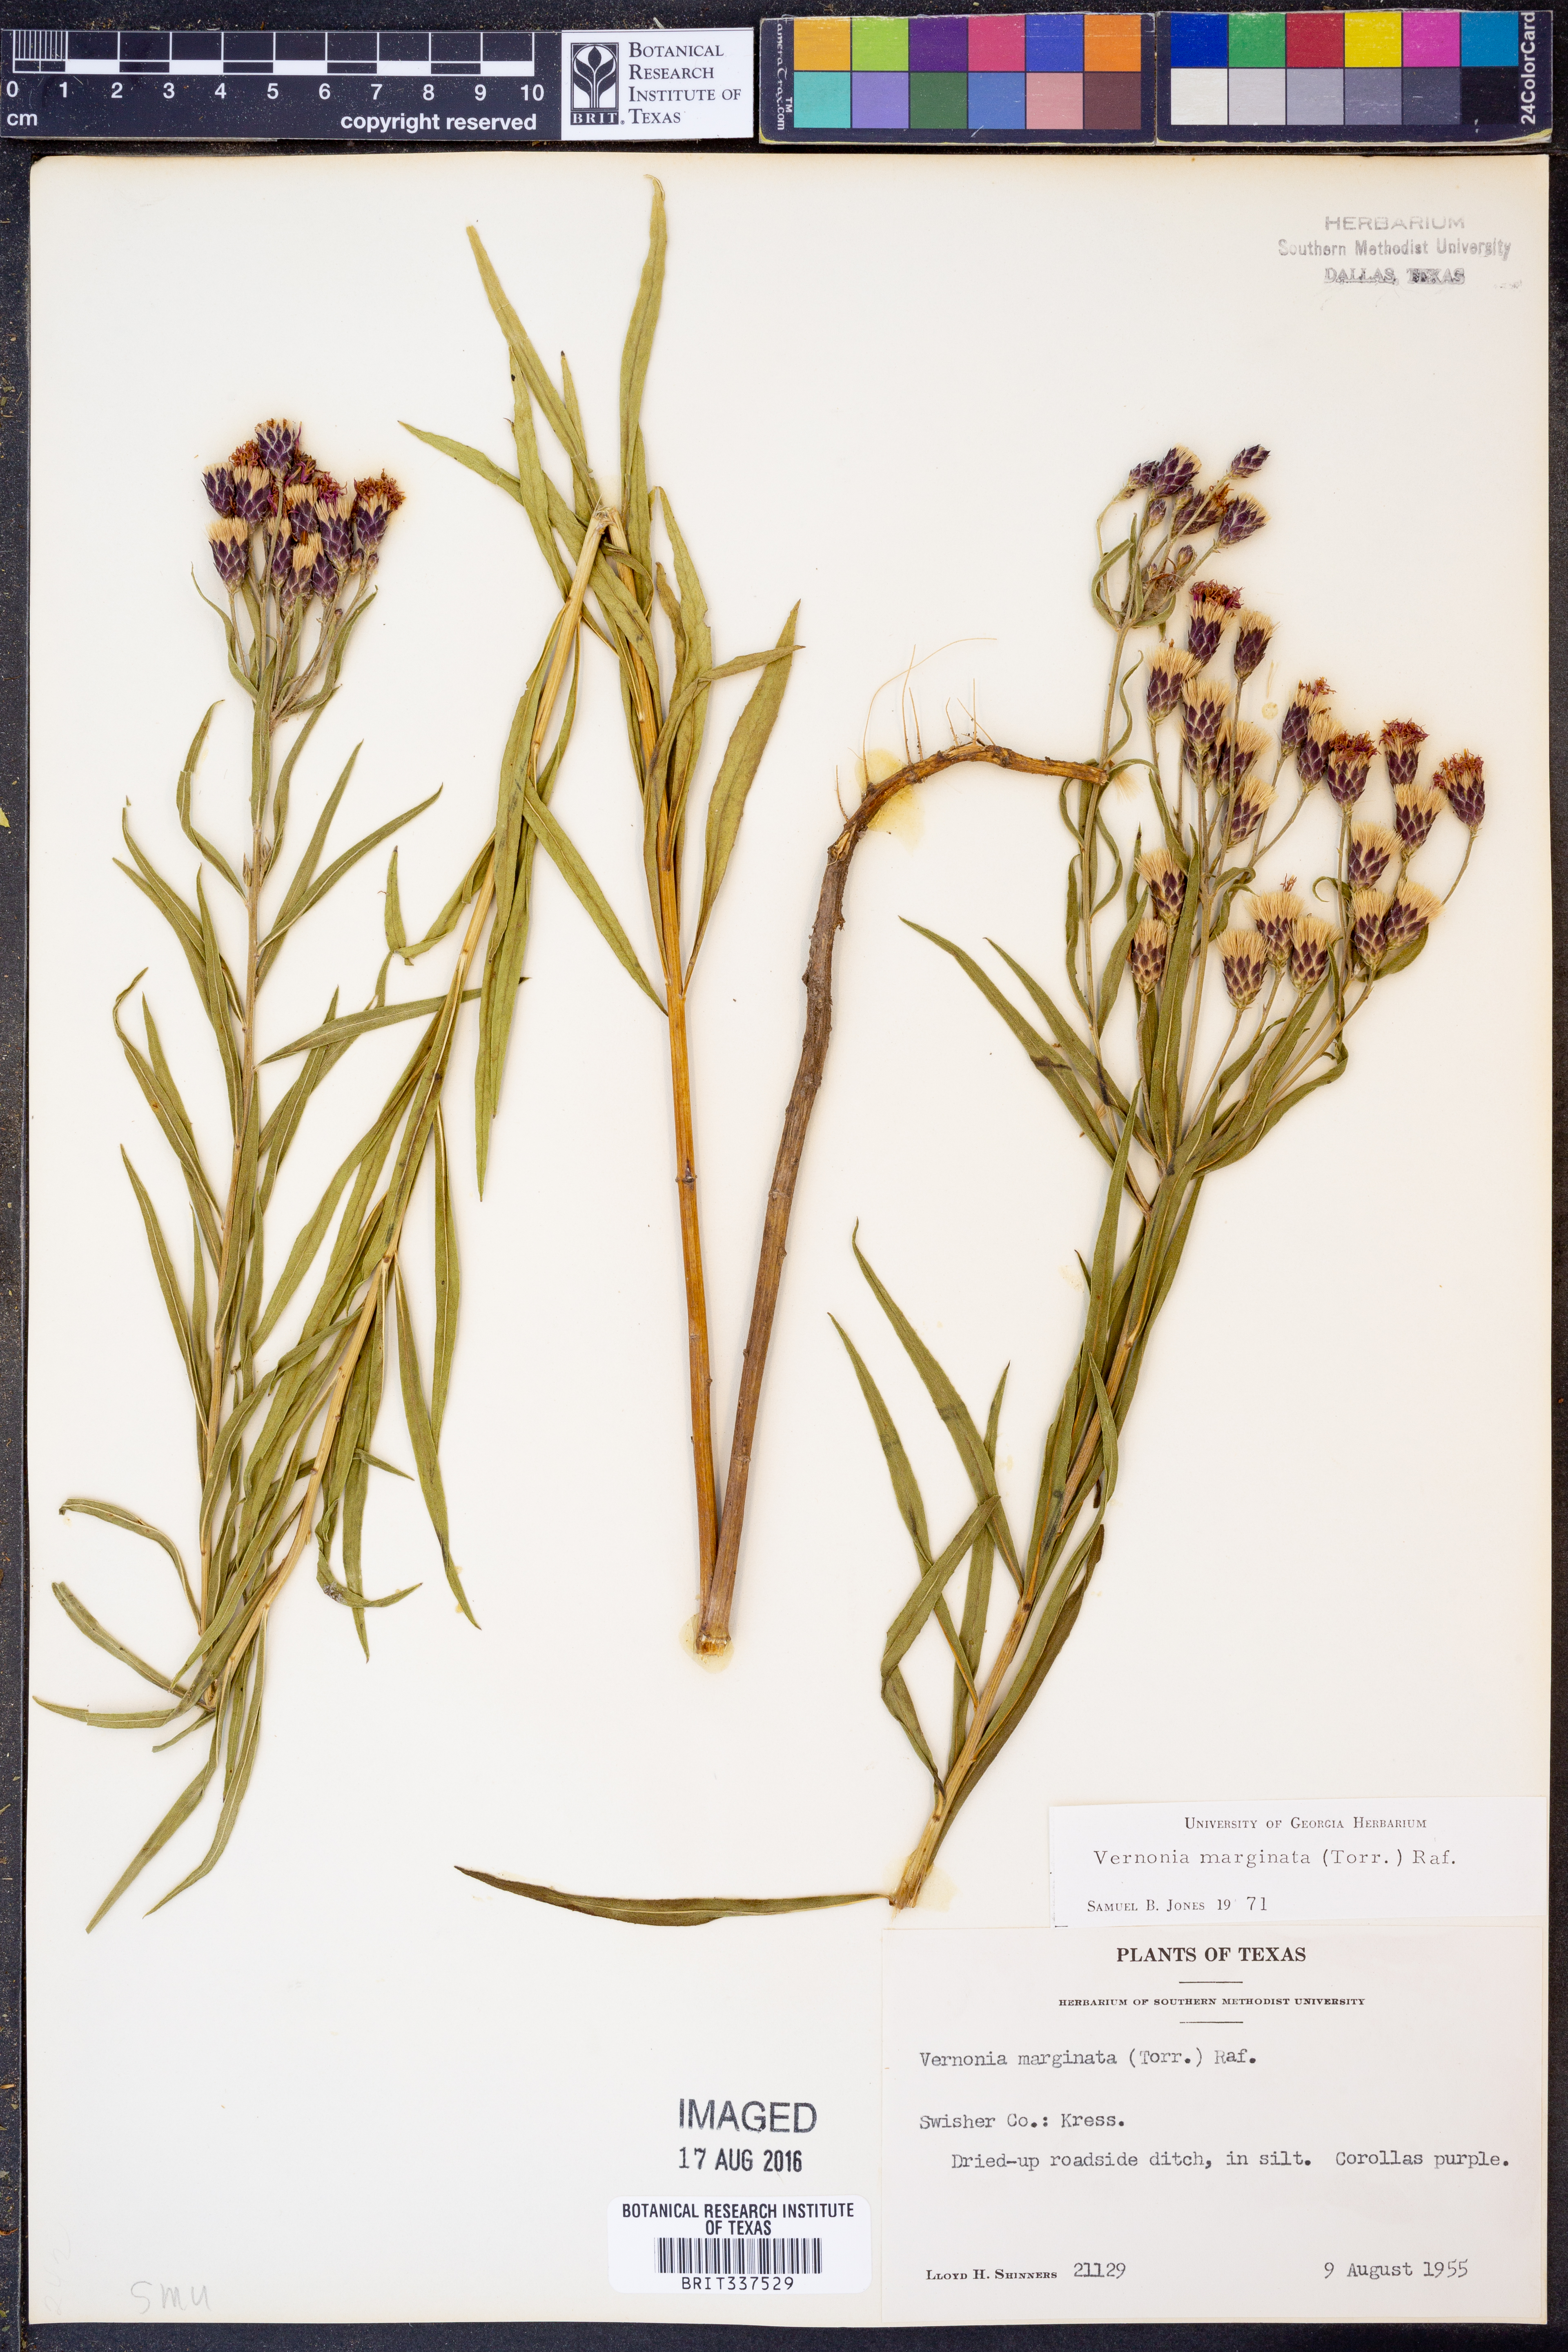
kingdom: Plantae
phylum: Tracheophyta
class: Magnoliopsida
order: Asterales
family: Asteraceae
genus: Vernonia
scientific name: Vernonia marginata
